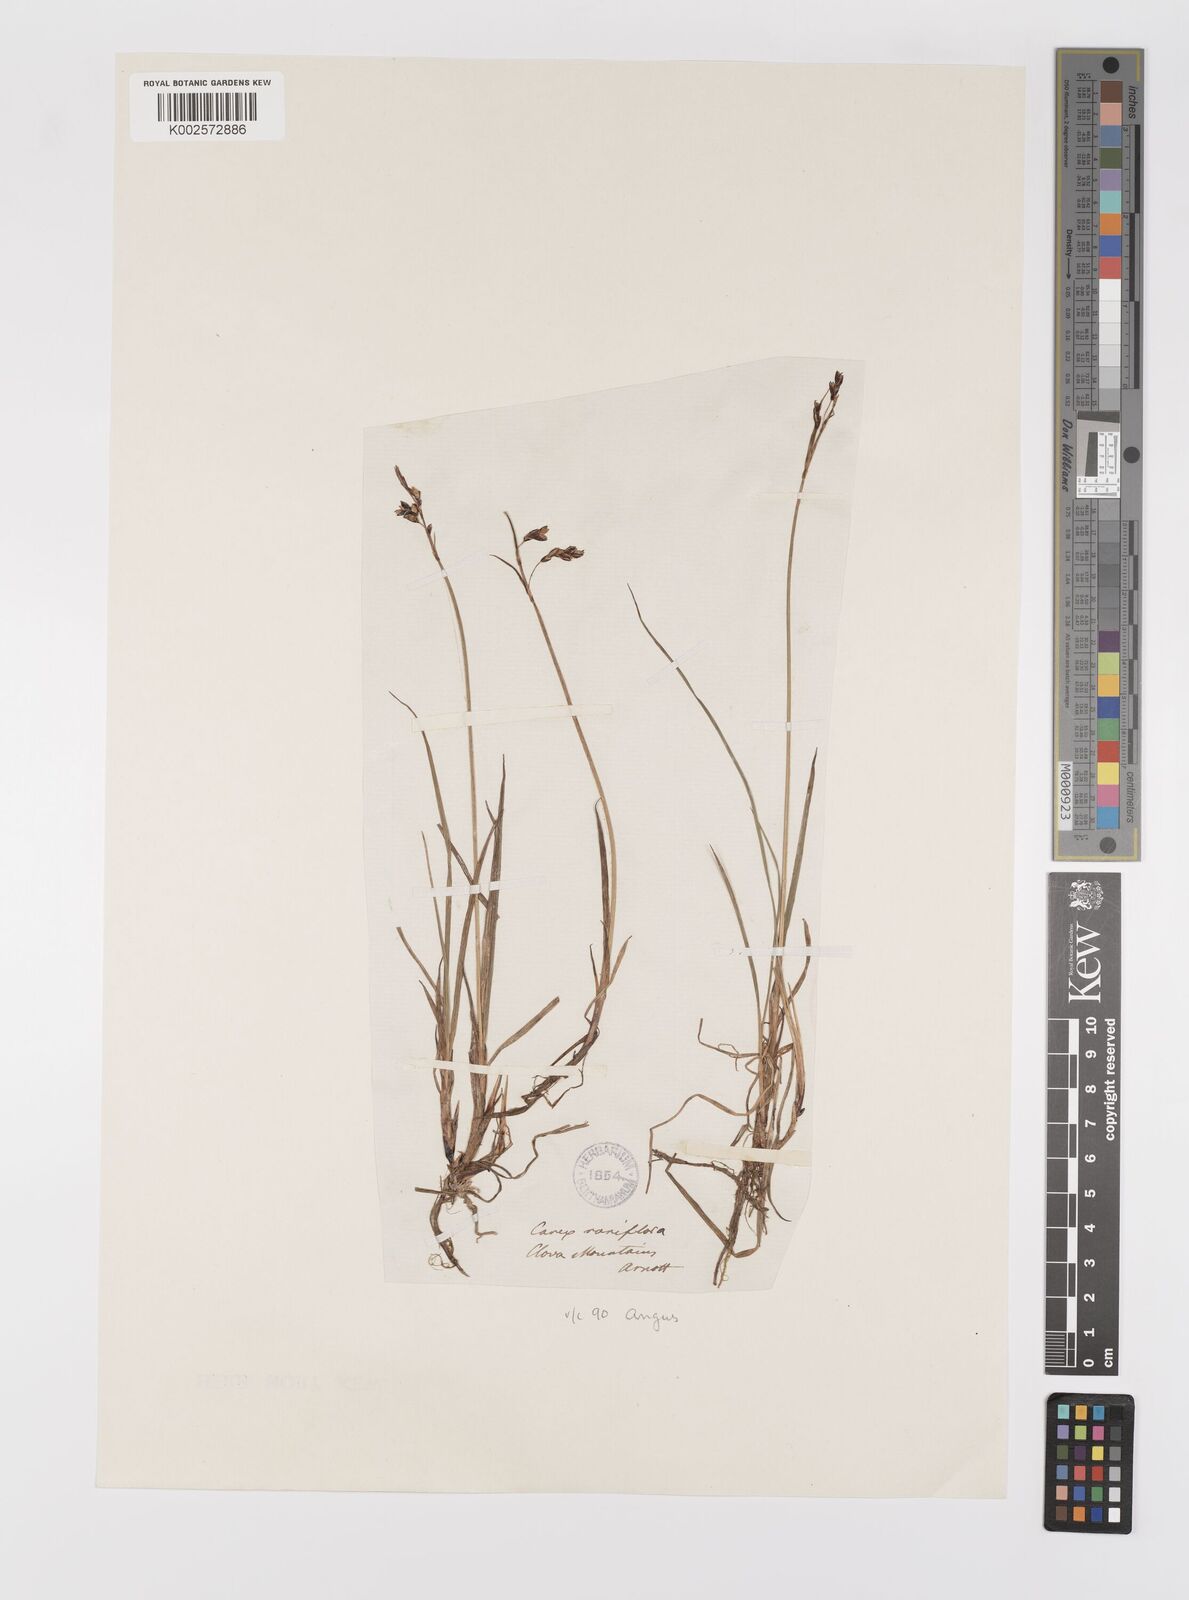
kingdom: Plantae
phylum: Tracheophyta
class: Liliopsida
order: Poales
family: Cyperaceae
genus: Carex
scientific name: Carex rariflora
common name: Loose-flowered alpine sedge
